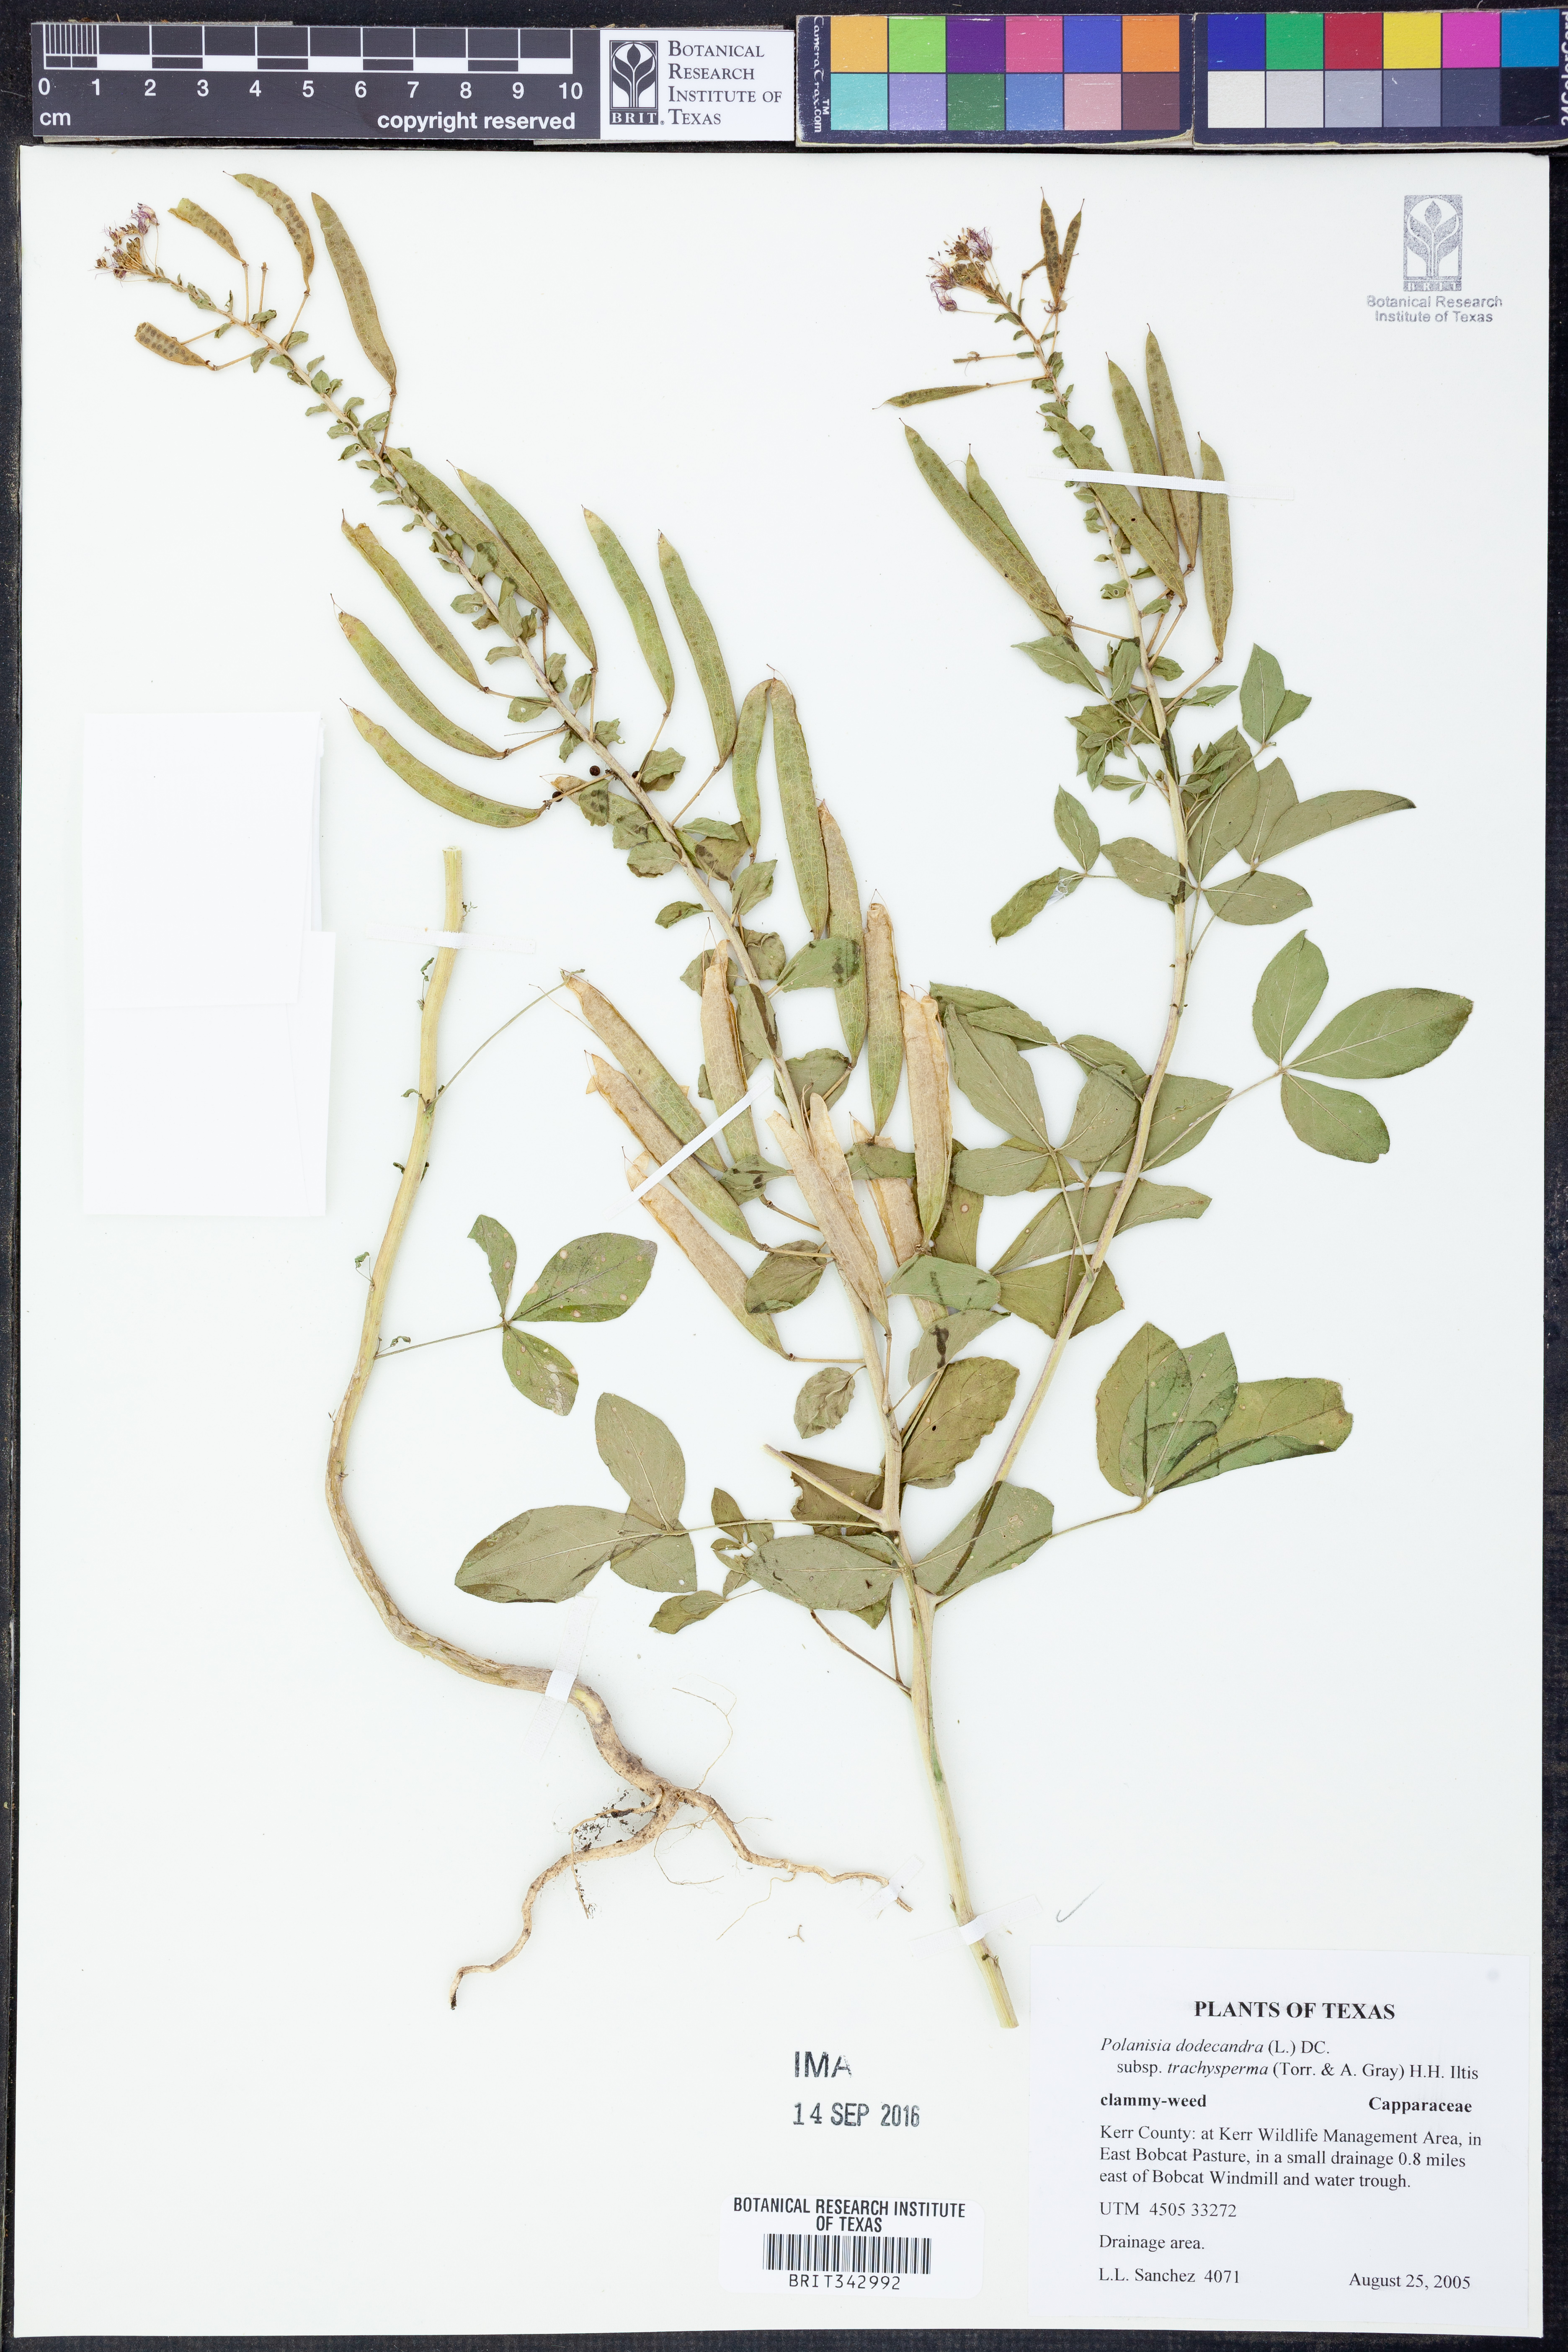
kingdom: Plantae
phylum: Tracheophyta
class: Magnoliopsida
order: Brassicales
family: Cleomaceae
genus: Polanisia
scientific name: Polanisia trachysperma
